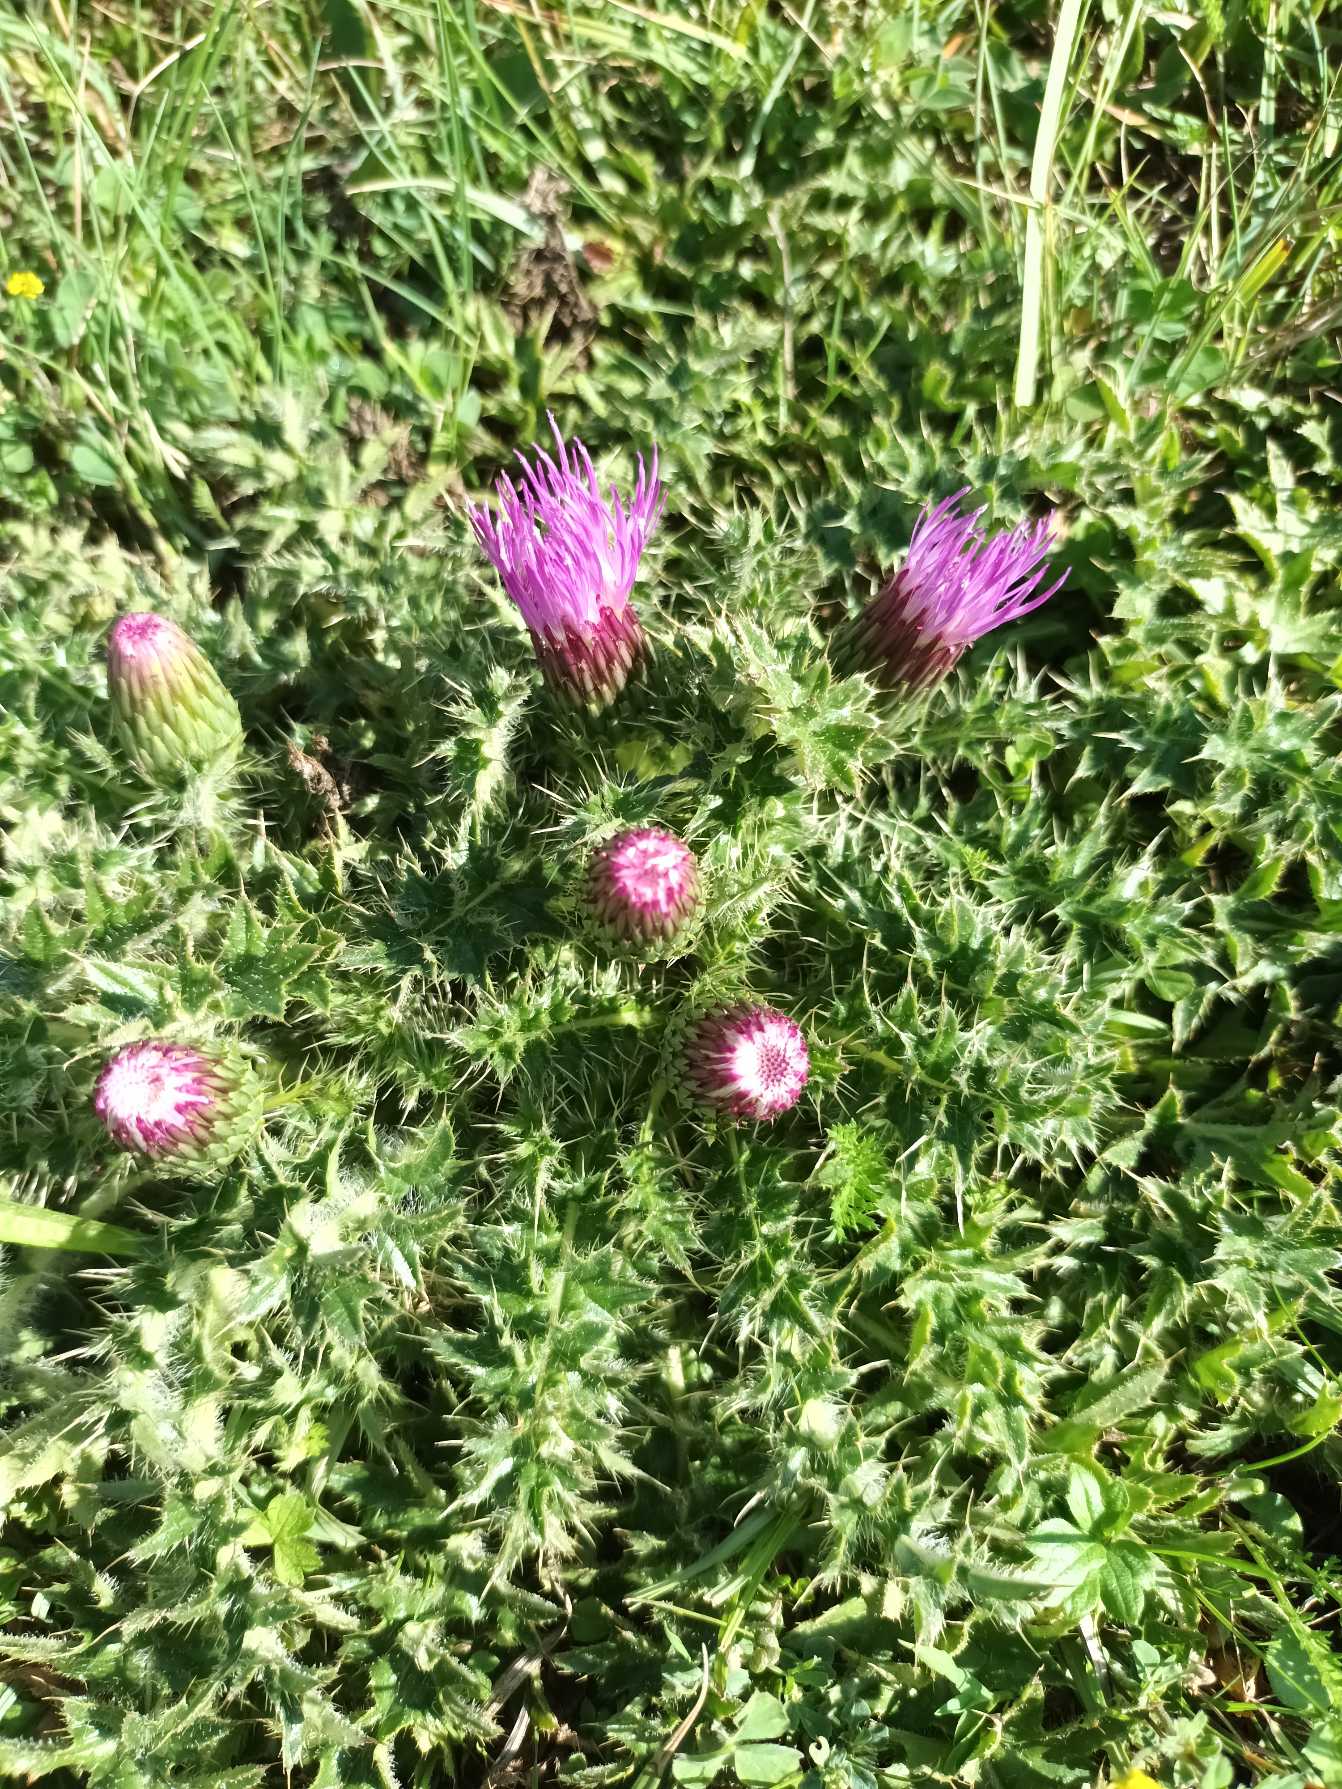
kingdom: Plantae
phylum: Tracheophyta
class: Magnoliopsida
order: Asterales
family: Asteraceae
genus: Cirsium
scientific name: Cirsium acaule
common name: Lav tidsel
